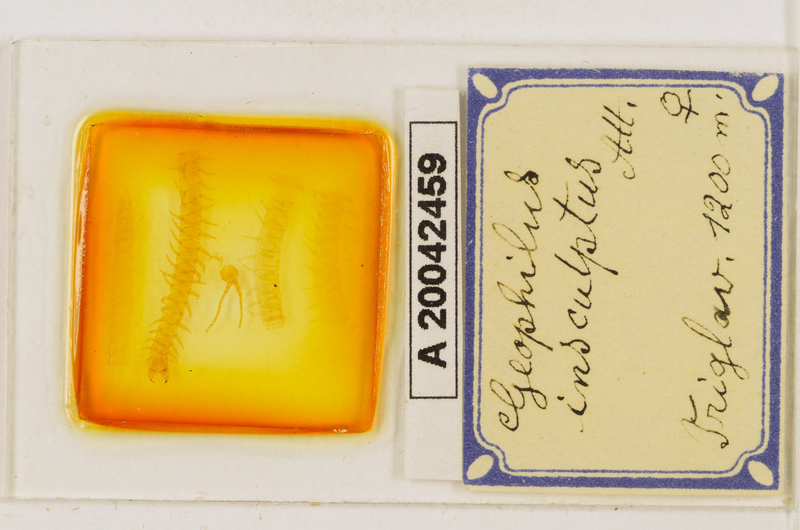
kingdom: Animalia
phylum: Arthropoda
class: Chilopoda
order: Geophilomorpha
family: Geophilidae
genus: Geophilus
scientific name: Geophilus insculptus
